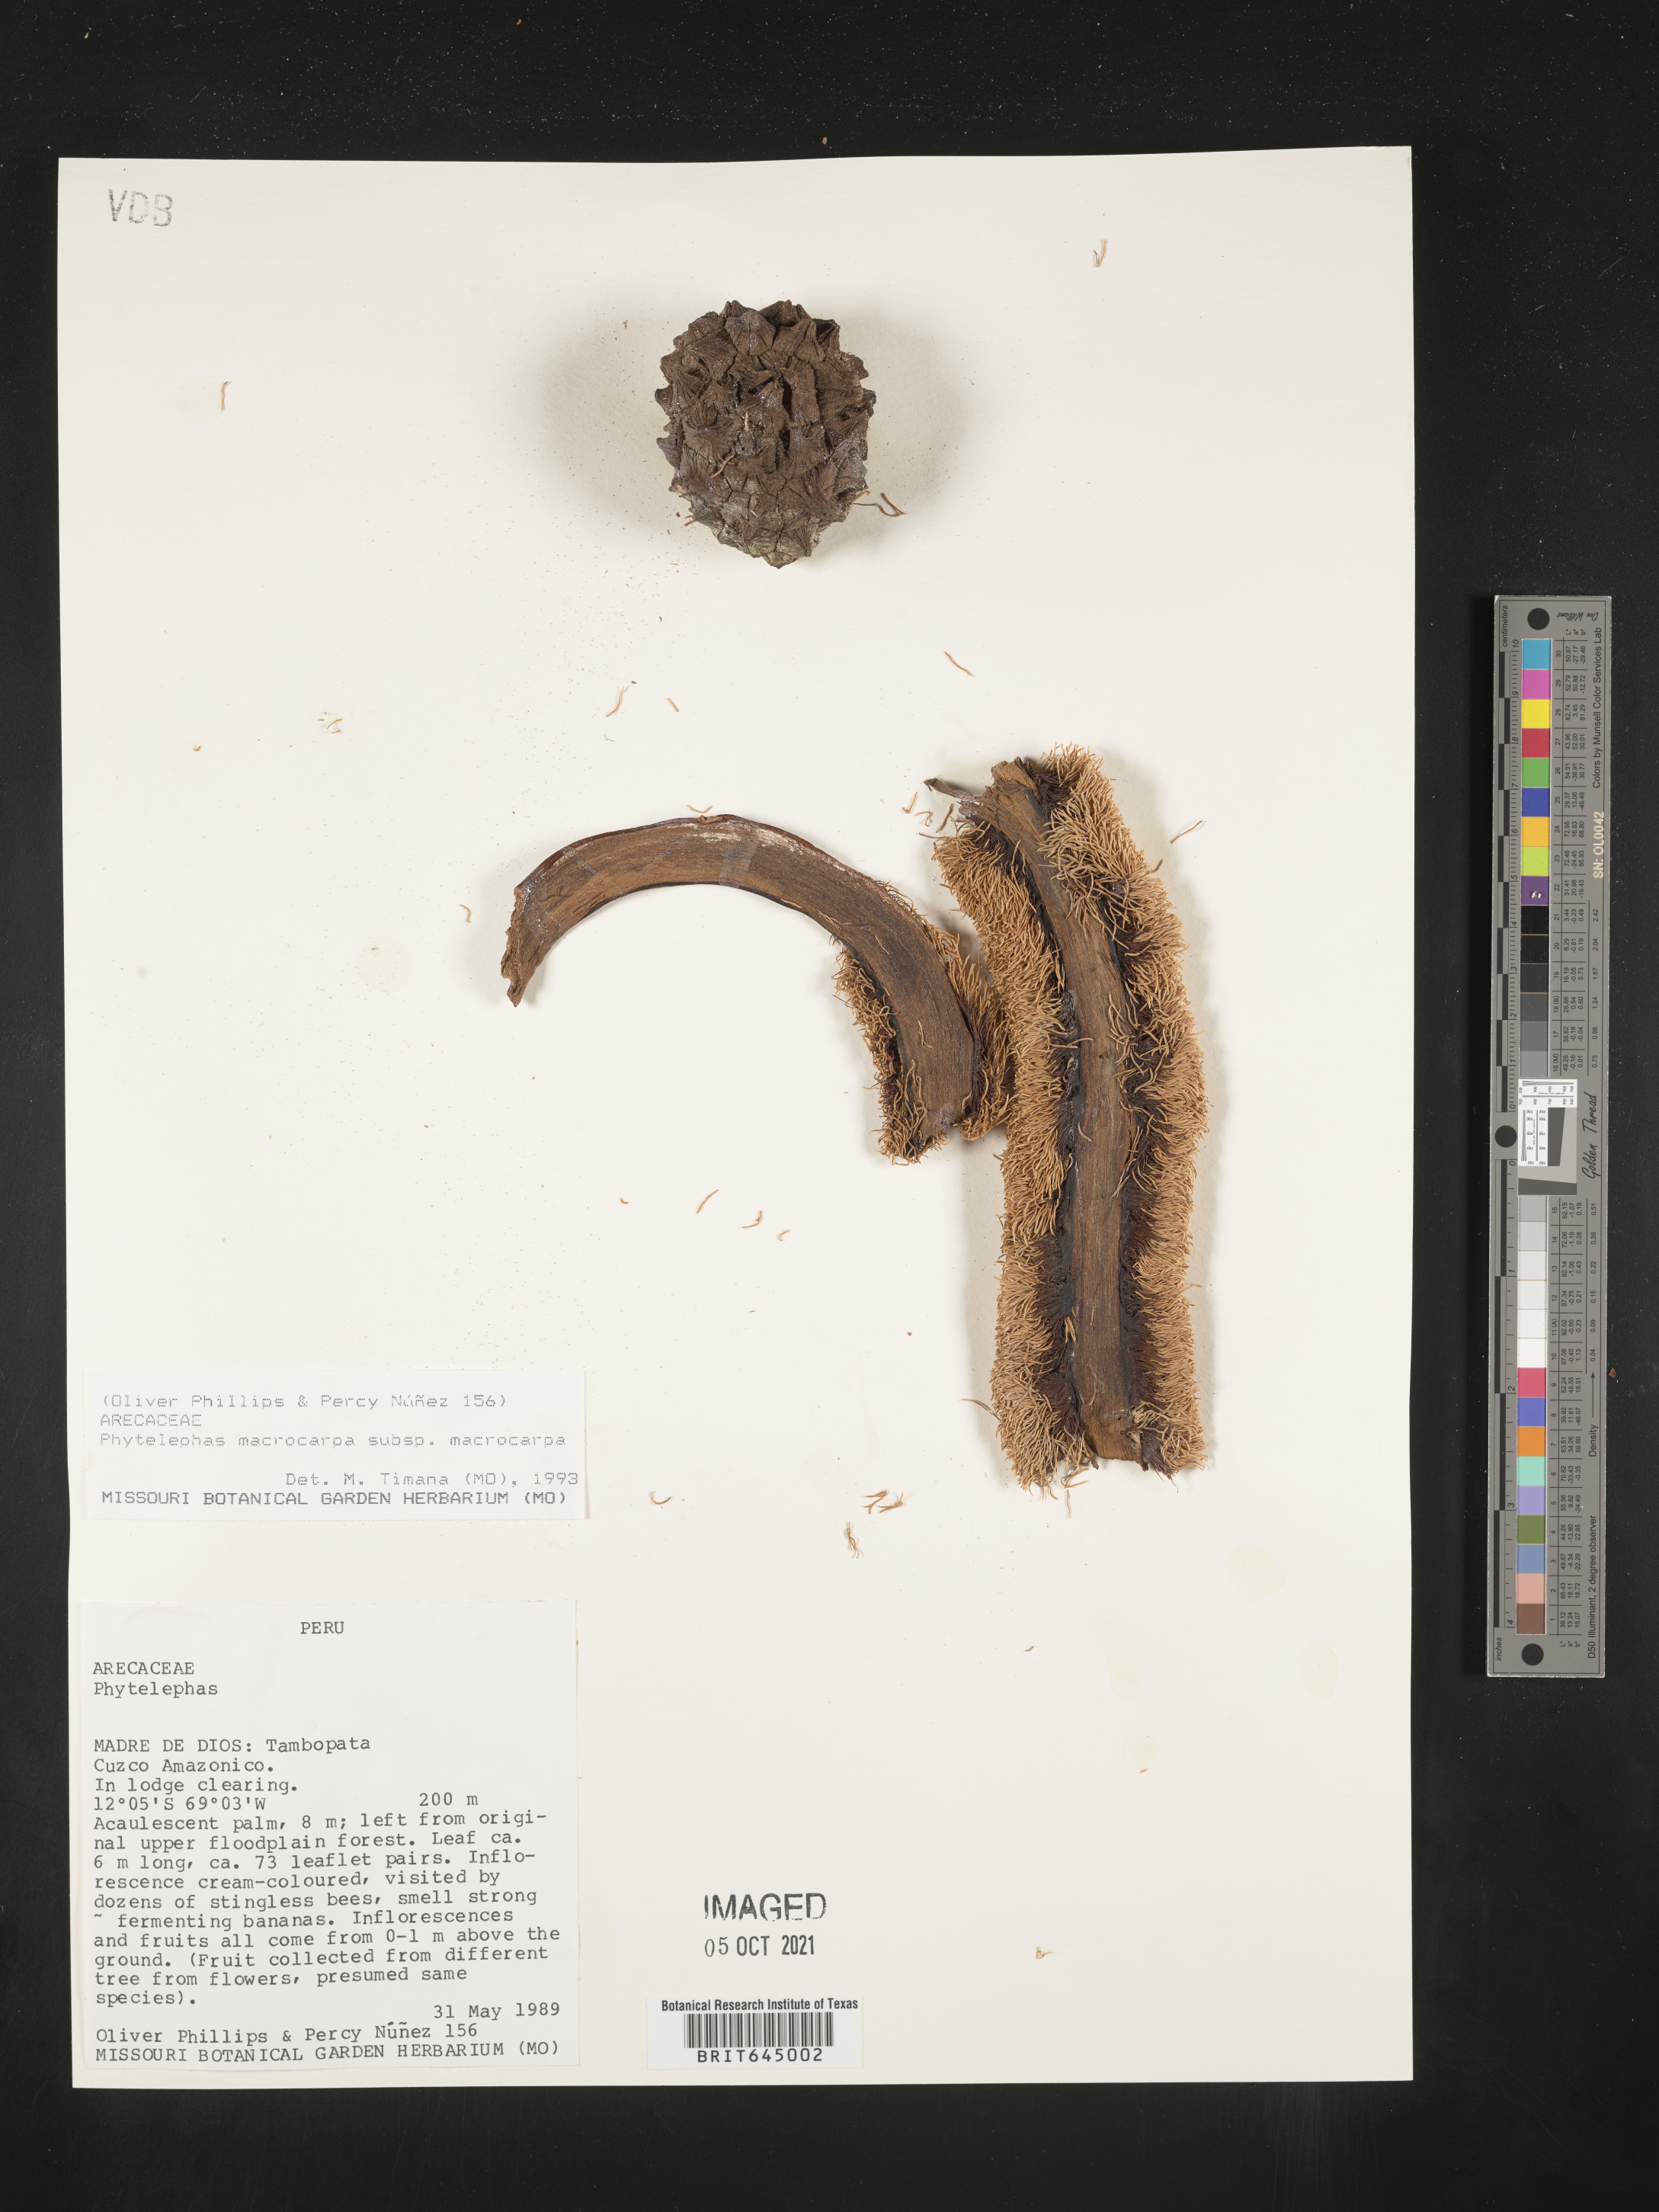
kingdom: Plantae
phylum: Tracheophyta
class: Liliopsida
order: Arecales
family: Arecaceae
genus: Phytelephas
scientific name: Phytelephas macrocarpa
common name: Ivory palm
